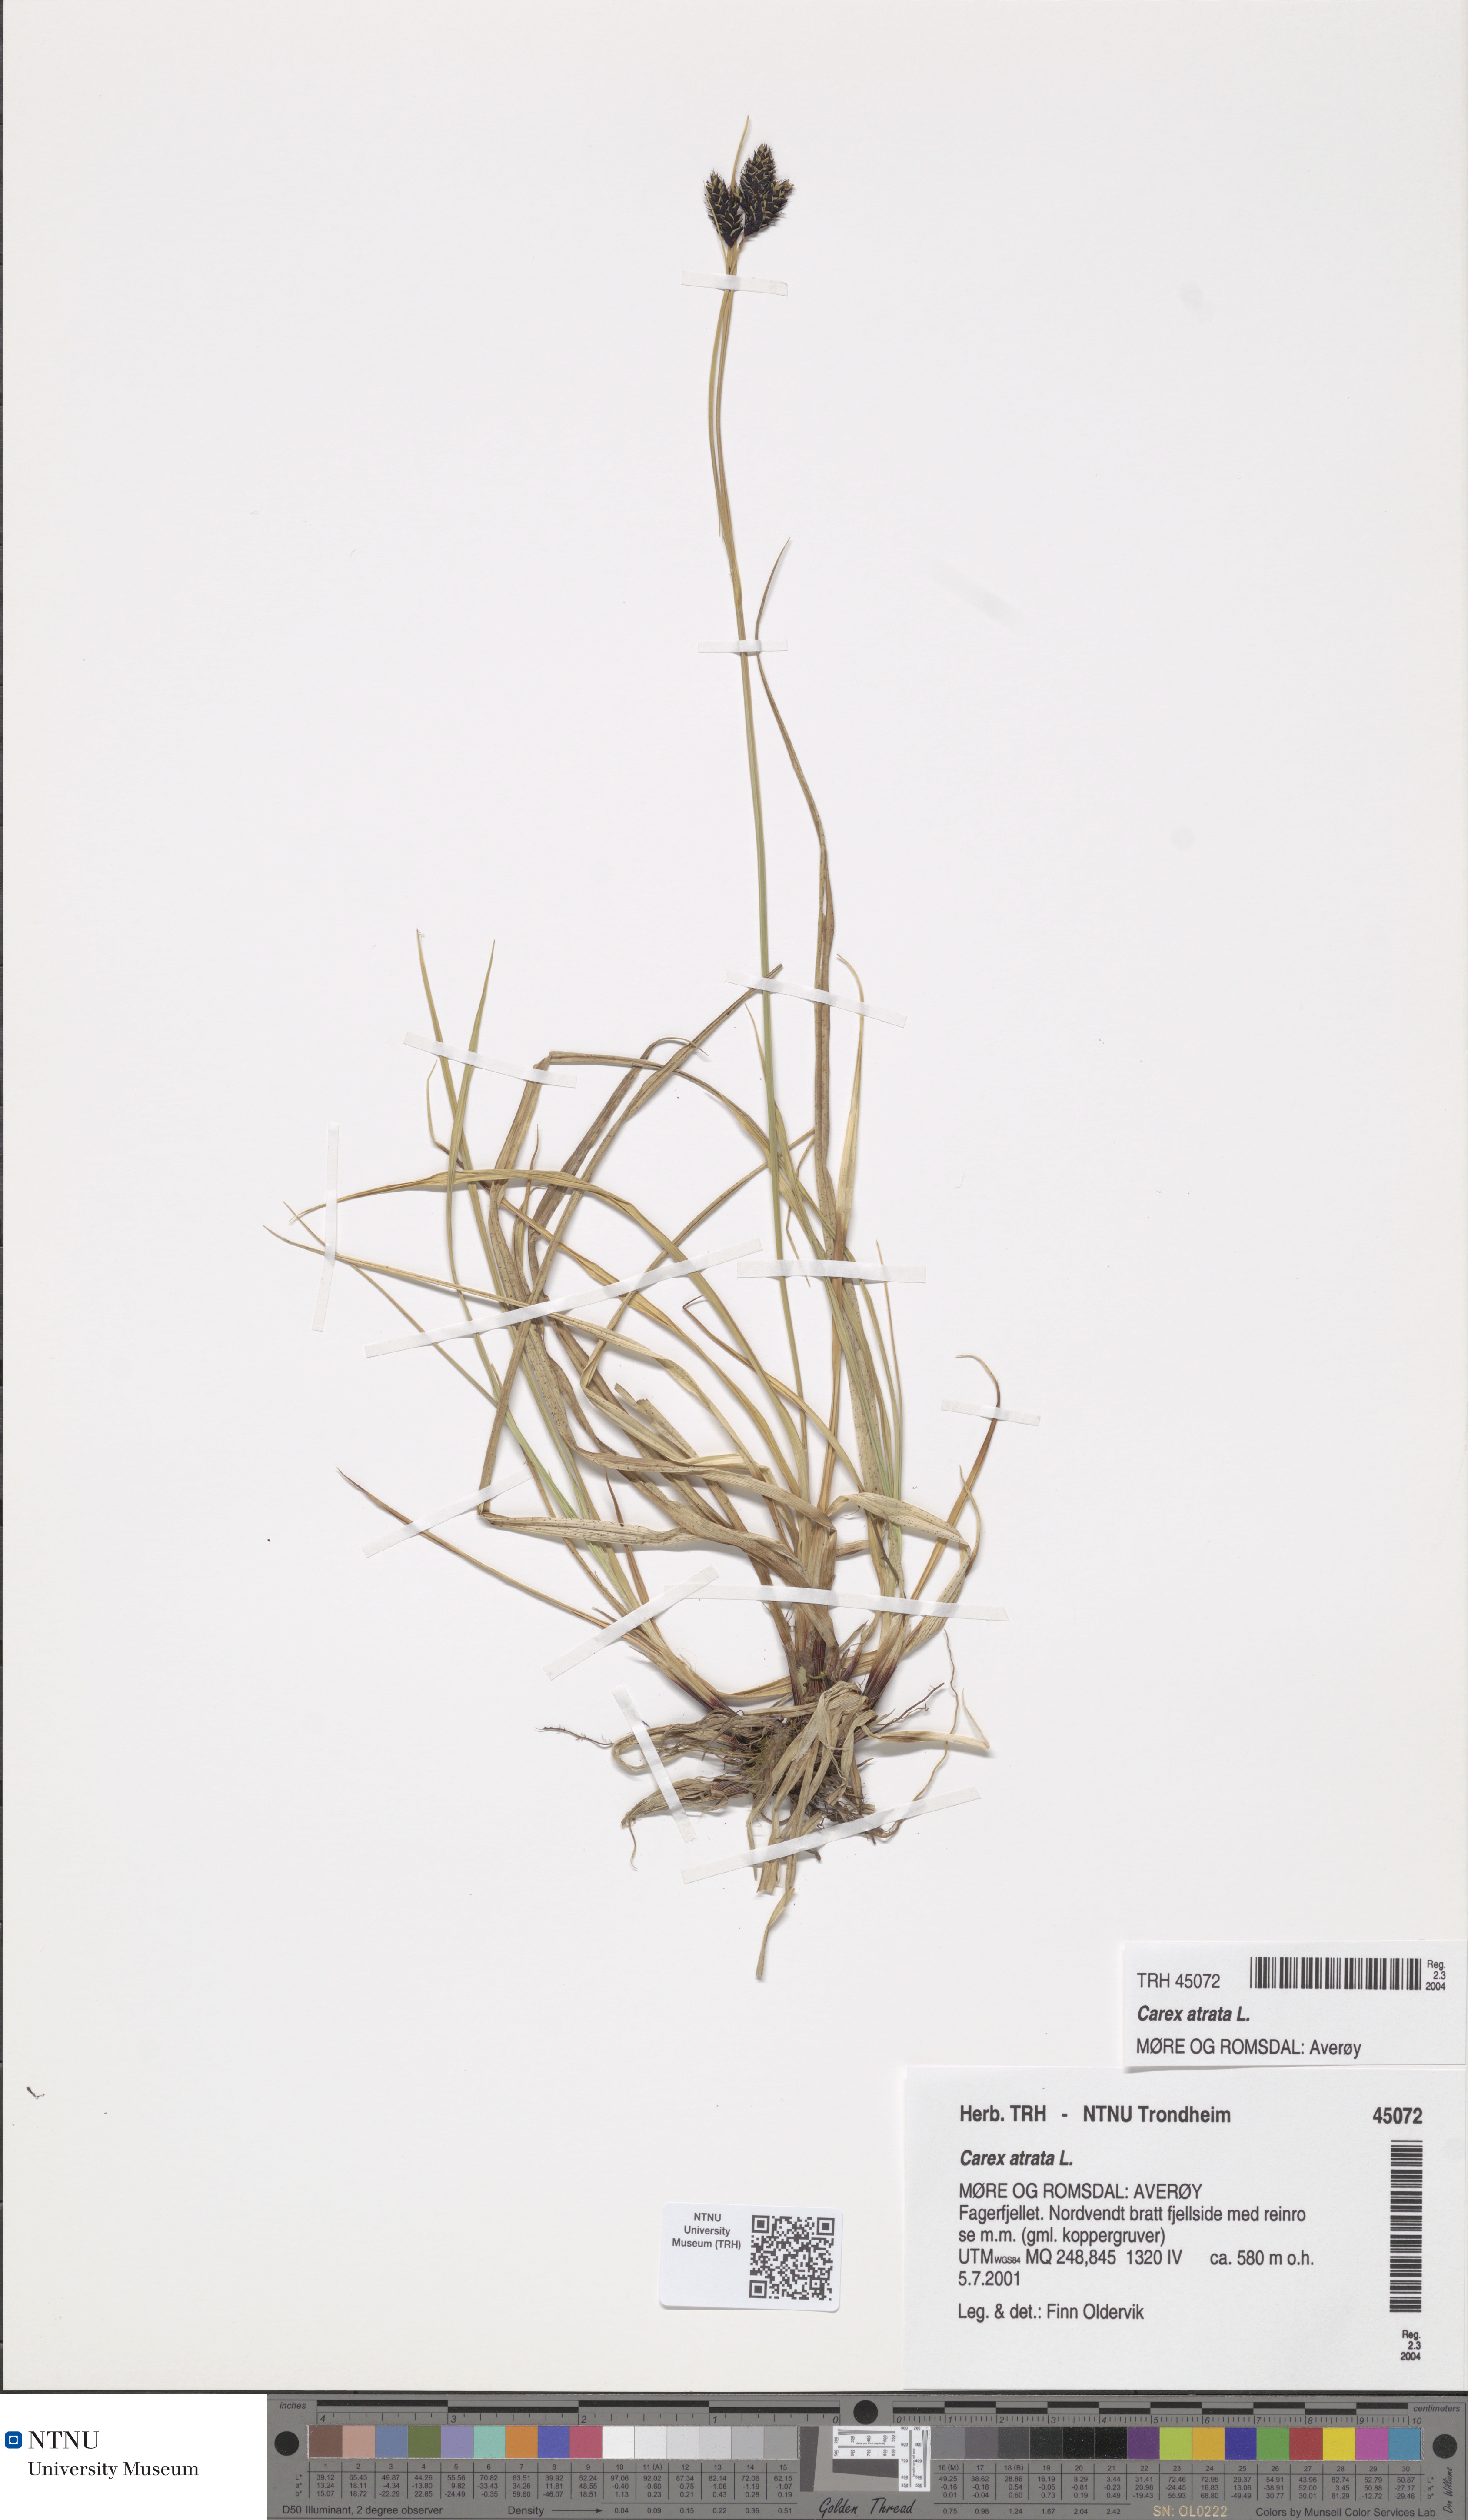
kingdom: Plantae
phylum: Tracheophyta
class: Liliopsida
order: Poales
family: Cyperaceae
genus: Carex
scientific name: Carex atrata
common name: Black alpine sedge
